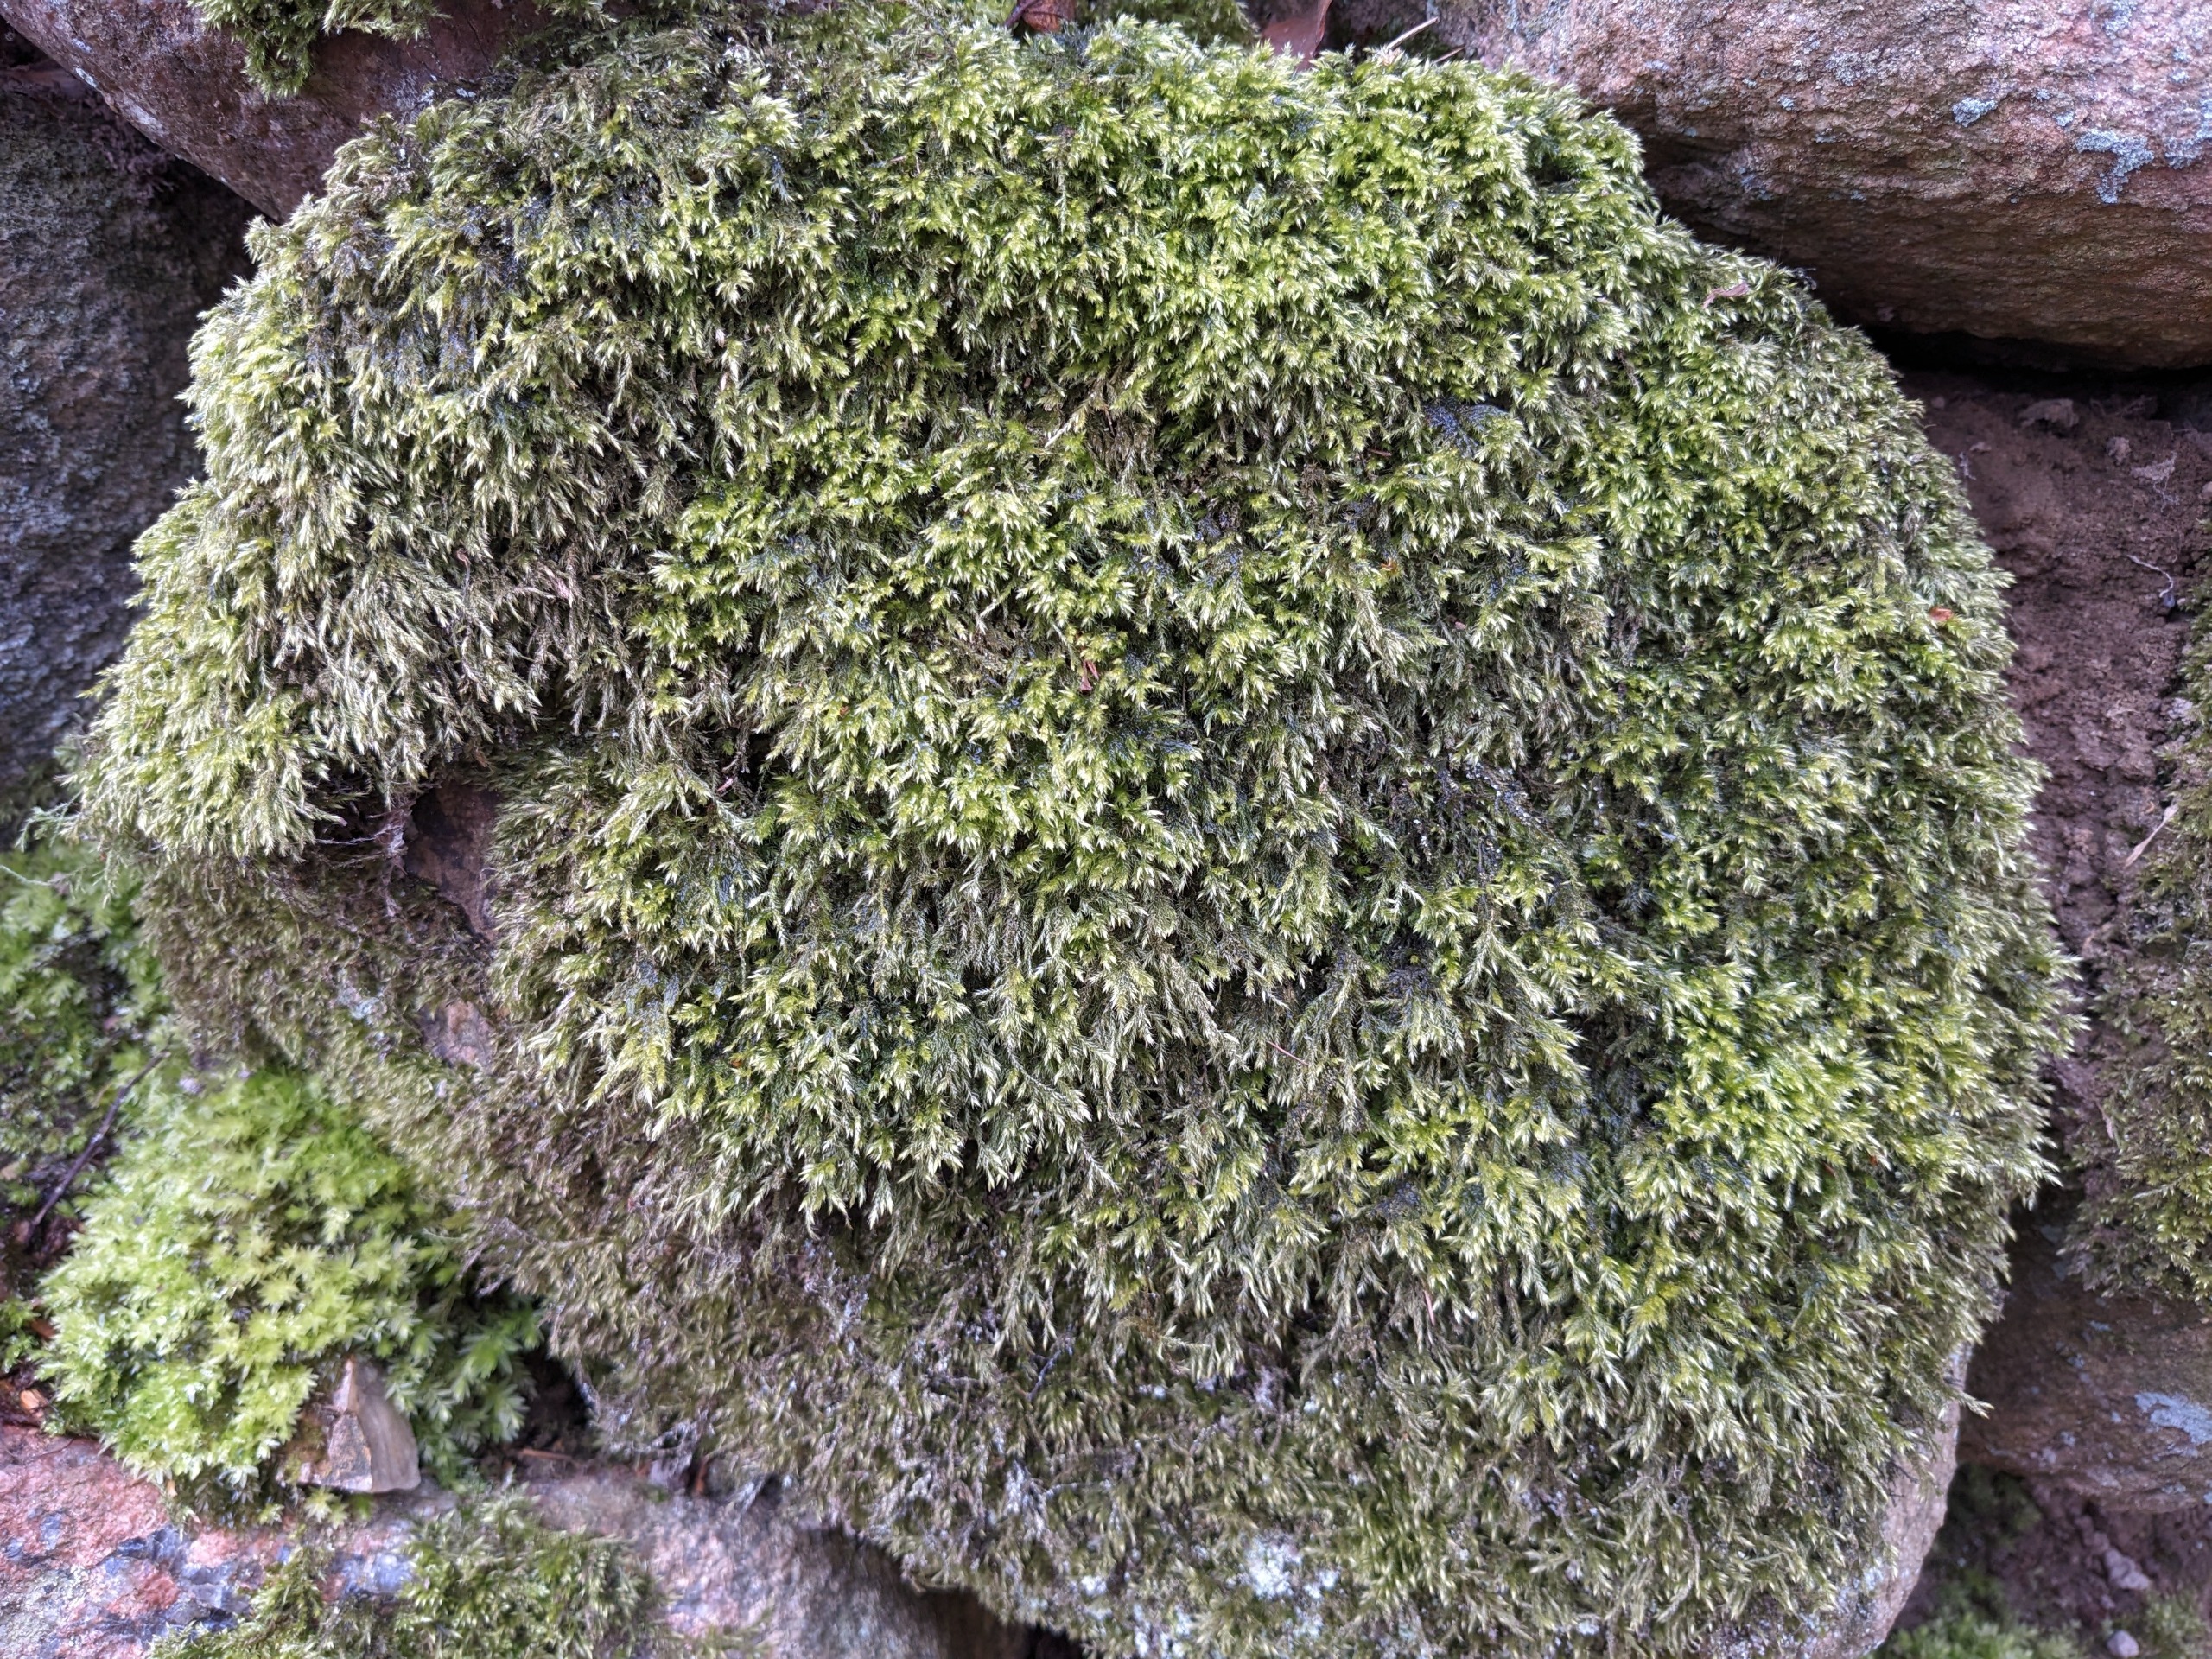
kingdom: Plantae
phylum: Bryophyta
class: Bryopsida
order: Hypnales
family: Lembophyllaceae
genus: Pseudisothecium
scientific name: Pseudisothecium myosuroides
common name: Slank stammemos
